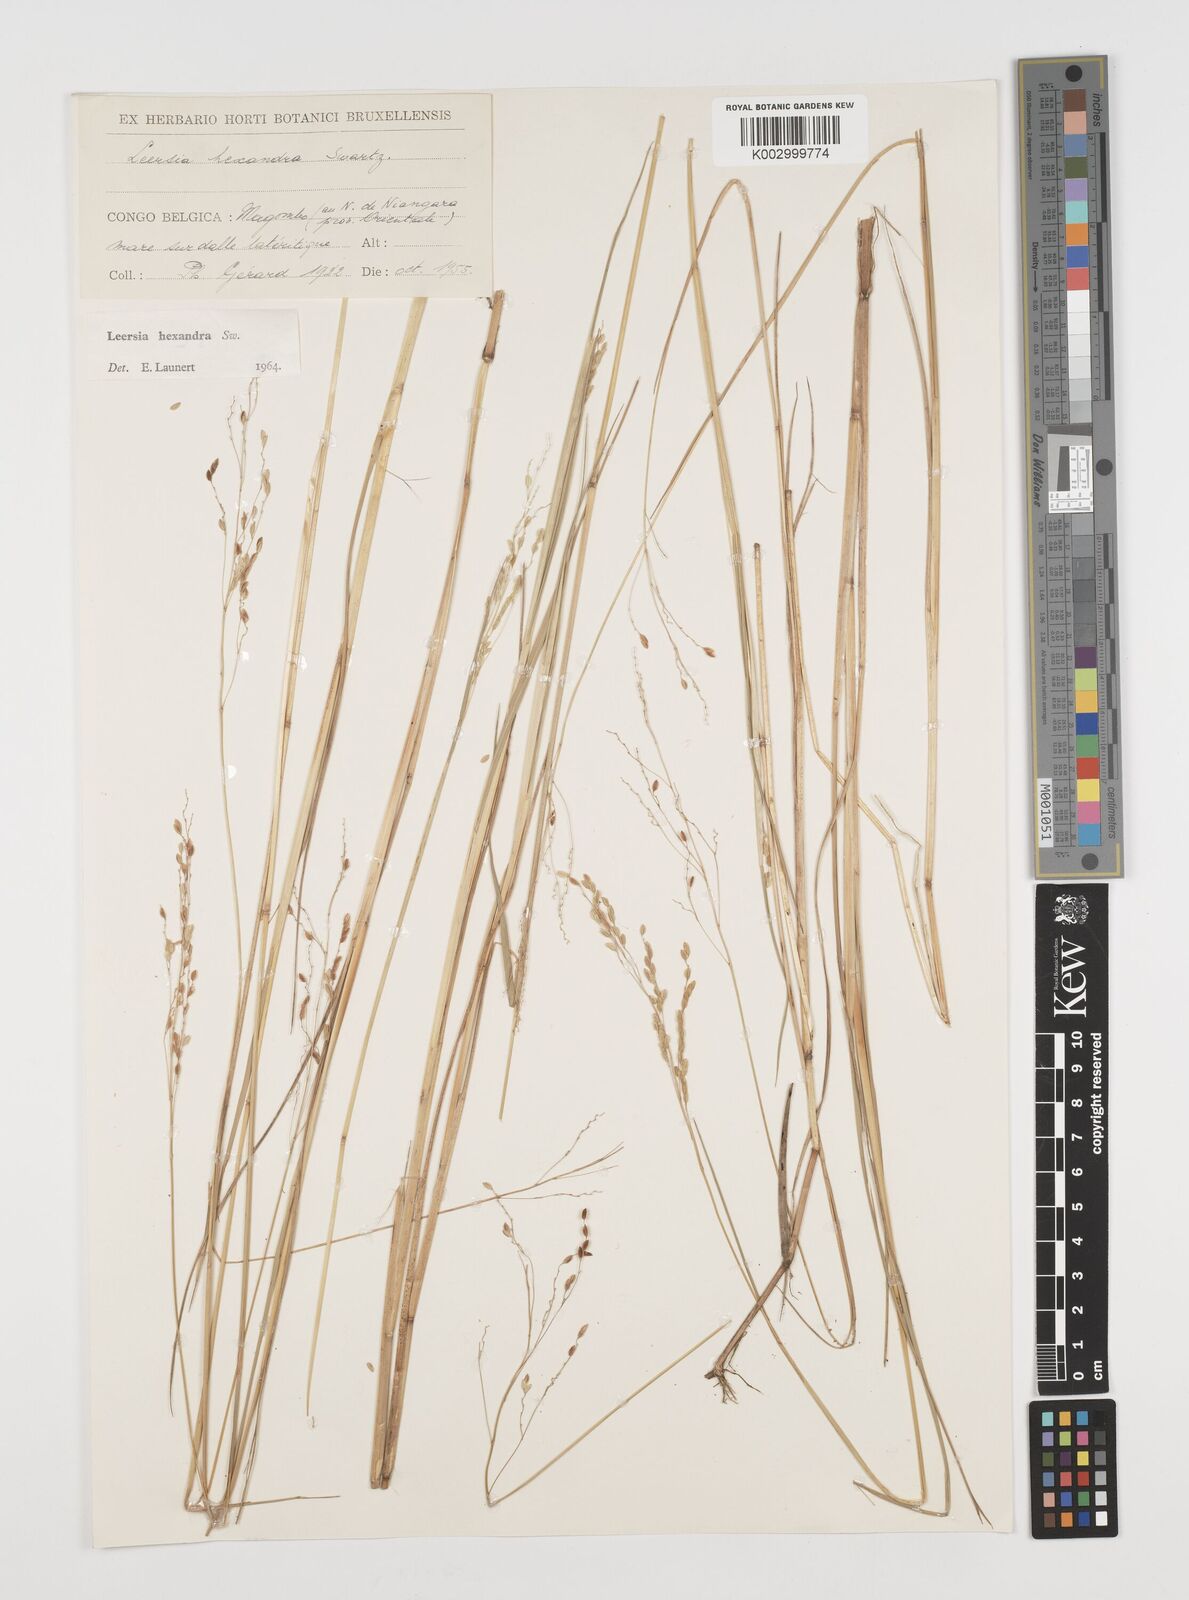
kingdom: Plantae
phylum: Tracheophyta
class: Liliopsida
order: Poales
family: Poaceae
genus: Leersia
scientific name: Leersia hexandra
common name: Southern cut grass
